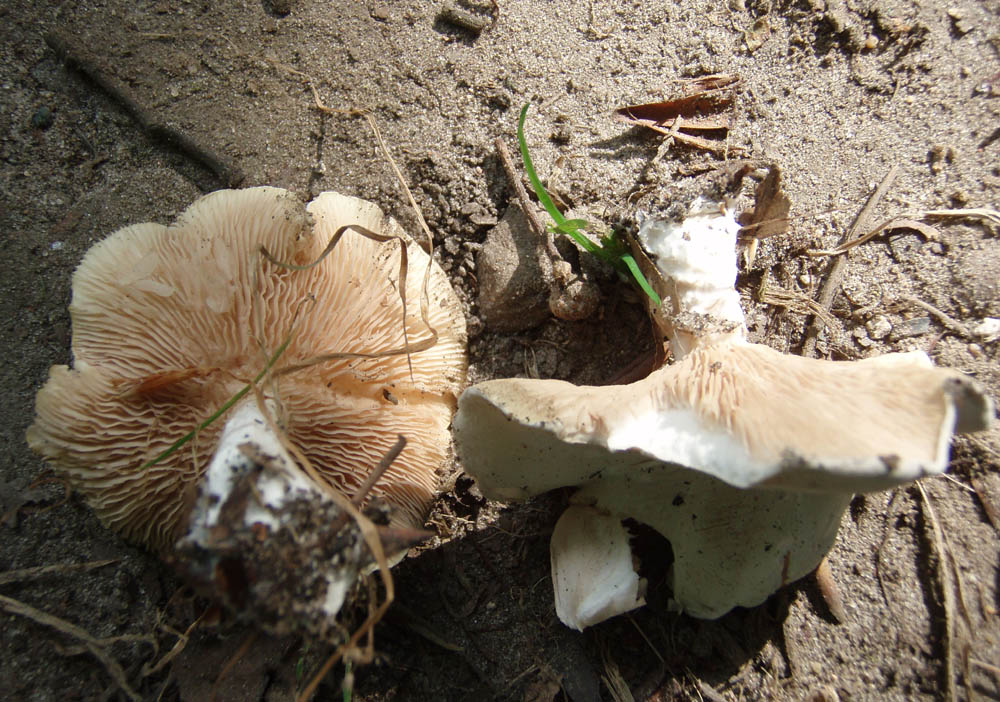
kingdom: Fungi
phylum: Basidiomycota
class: Agaricomycetes
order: Agaricales
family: Entolomataceae
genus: Clitopilus
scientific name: Clitopilus prunulus
